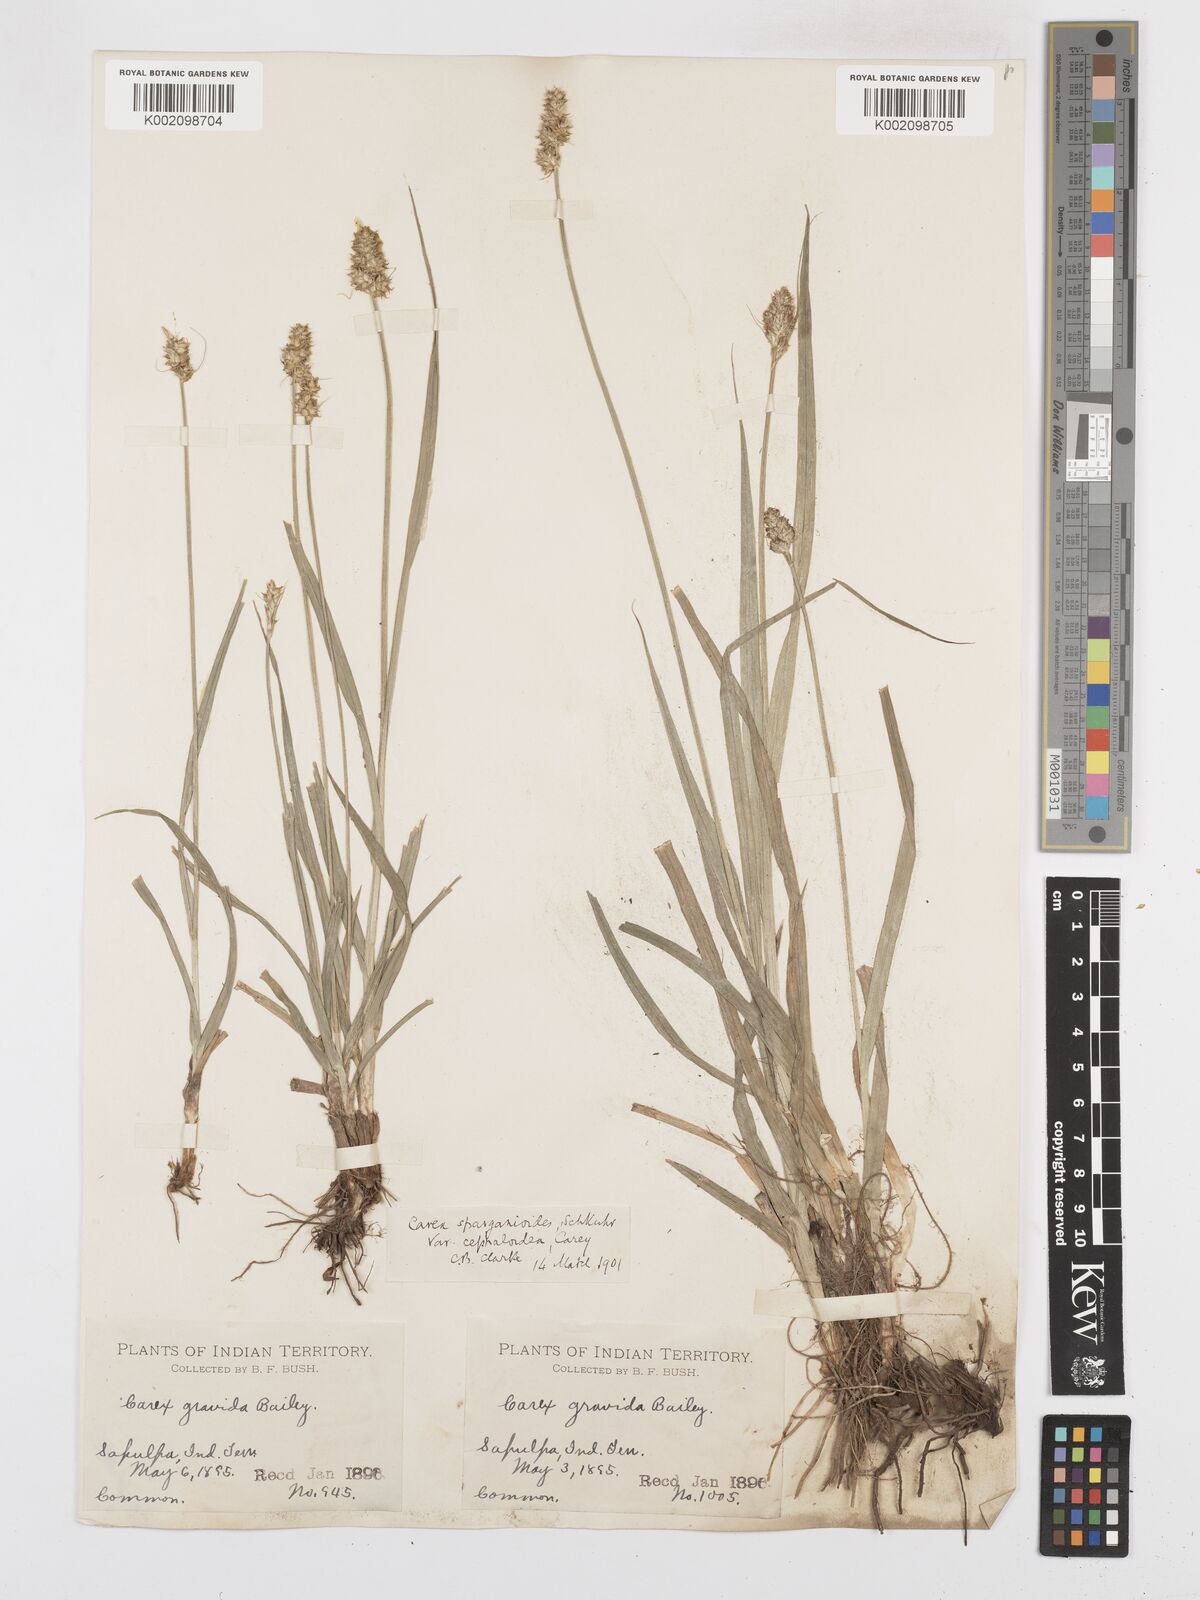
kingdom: Plantae
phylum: Tracheophyta
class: Liliopsida
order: Poales
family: Cyperaceae
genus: Carex
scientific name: Carex gravida
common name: Heavy sedge
